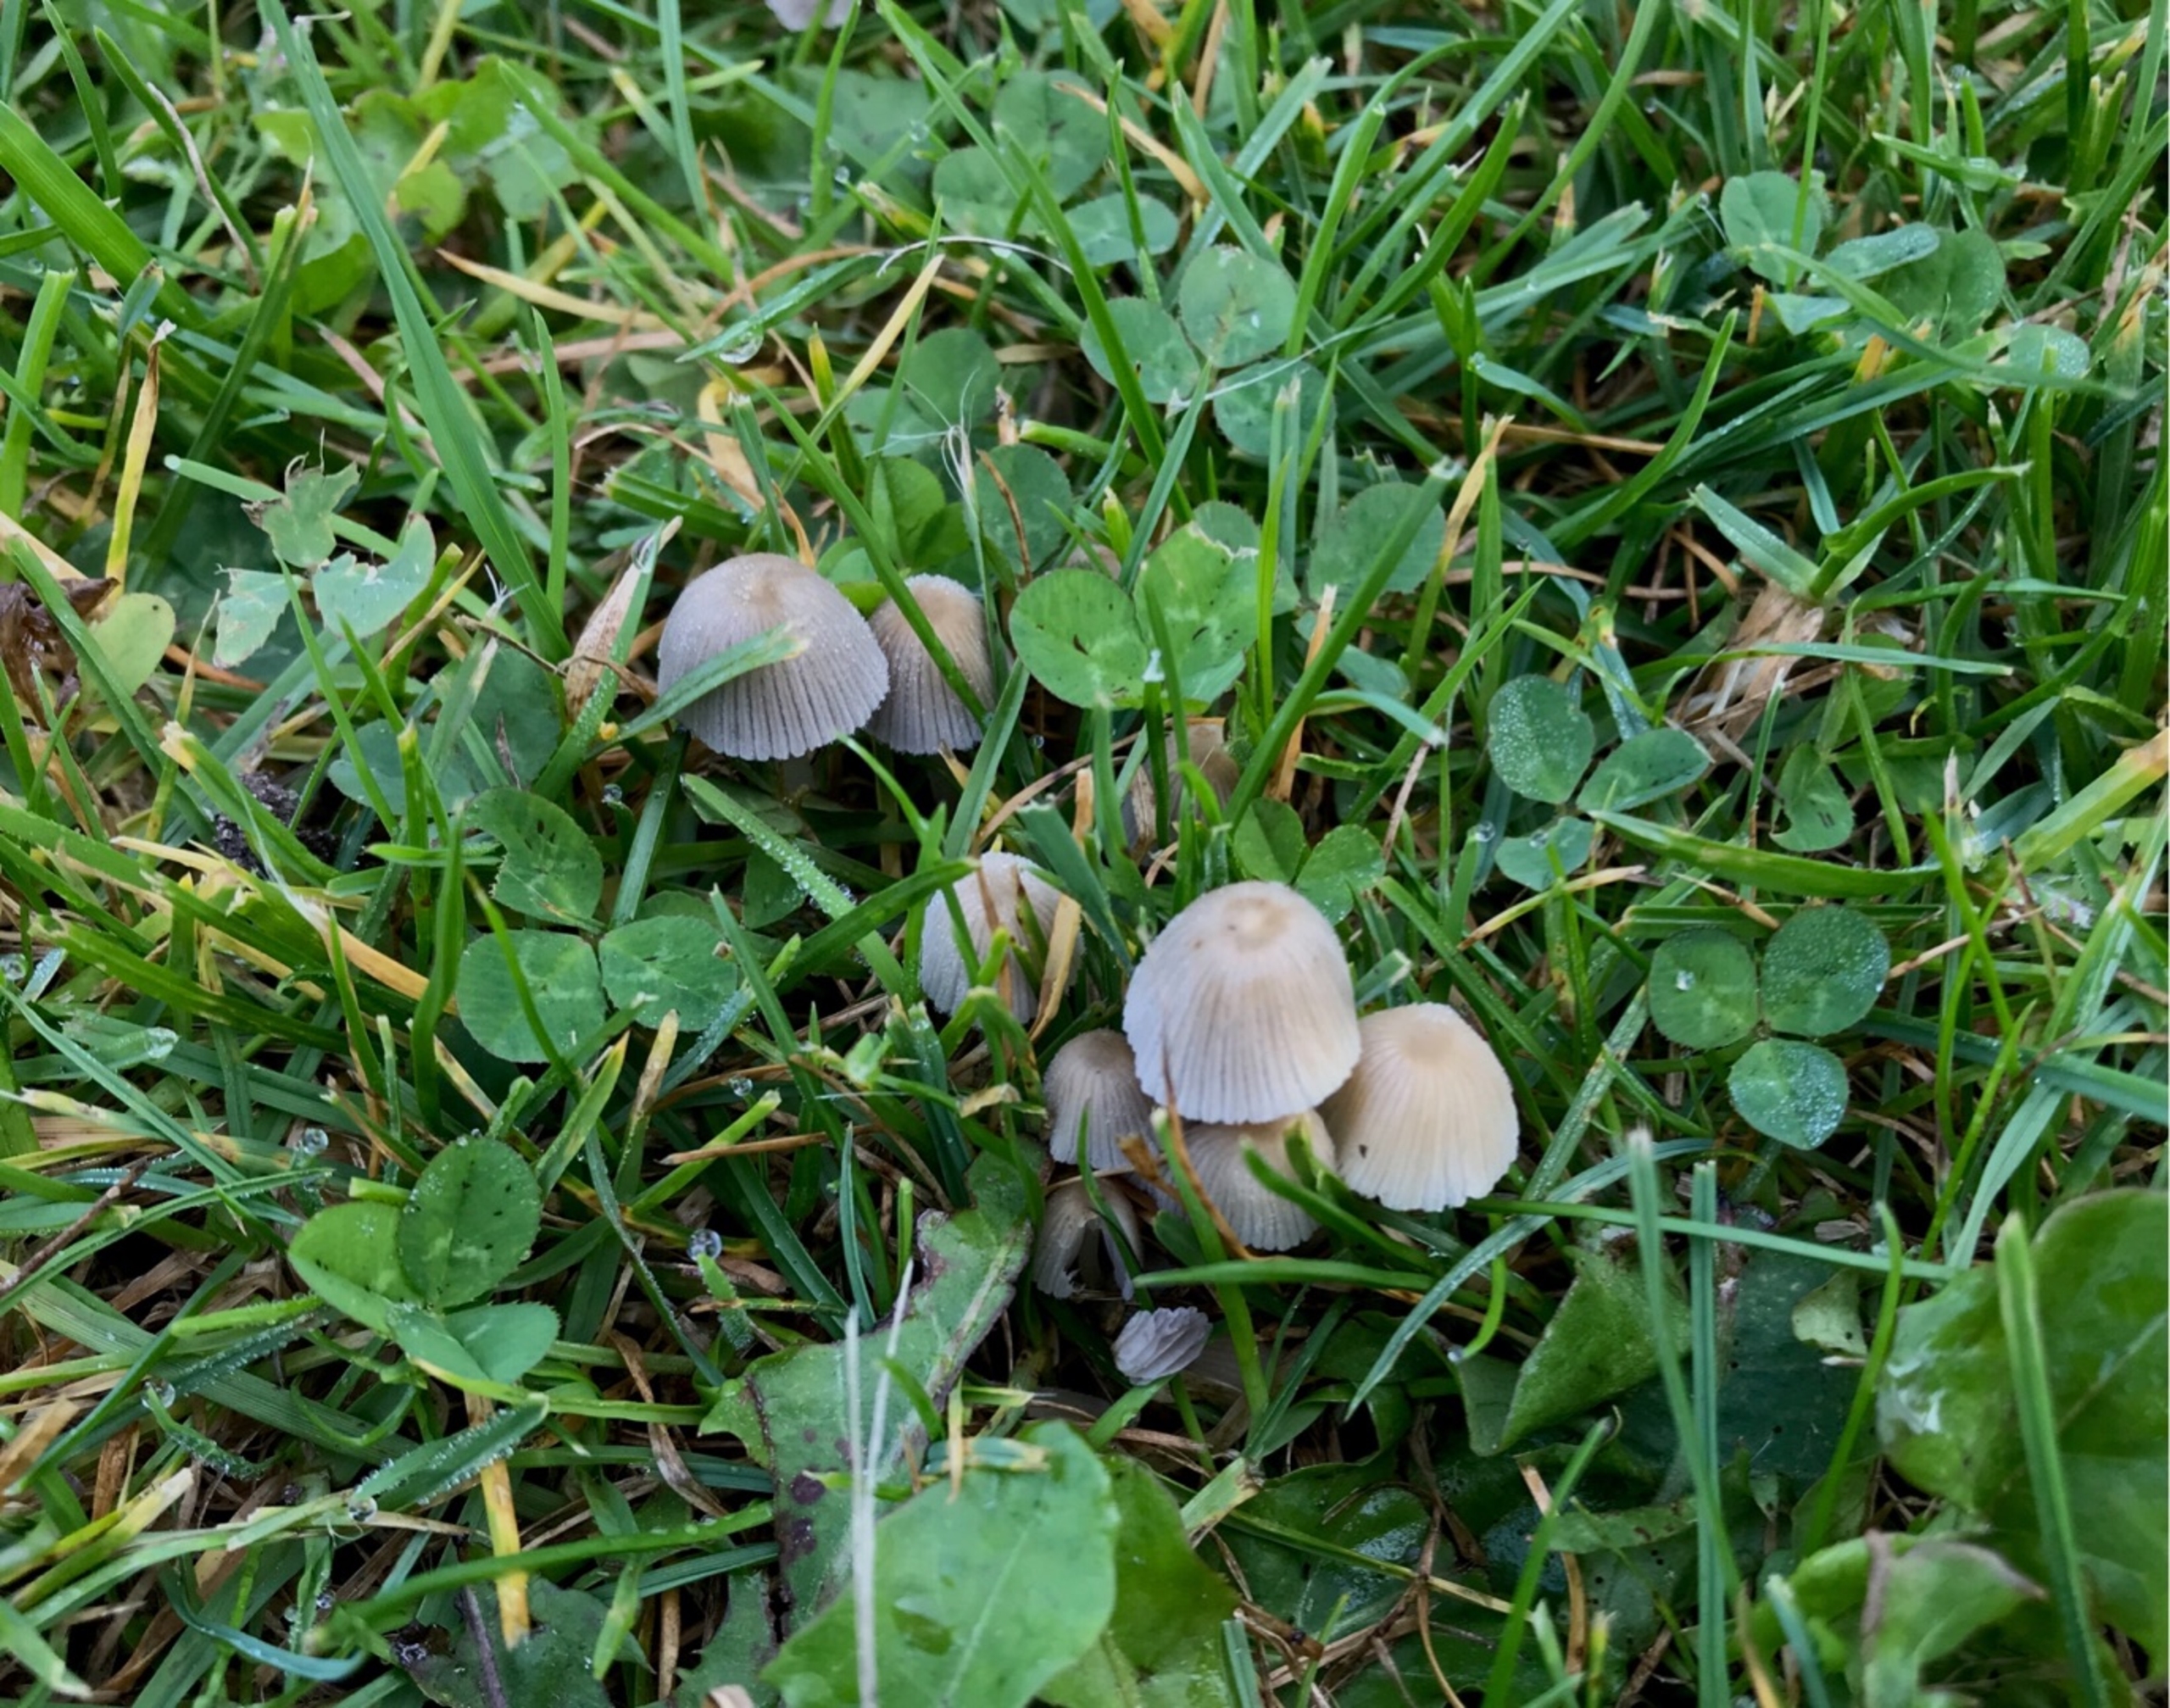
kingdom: Fungi
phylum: Basidiomycota
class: Agaricomycetes
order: Agaricales
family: Psathyrellaceae
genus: Coprinellus
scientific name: Coprinellus disseminatus
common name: Bredsået blækhat
